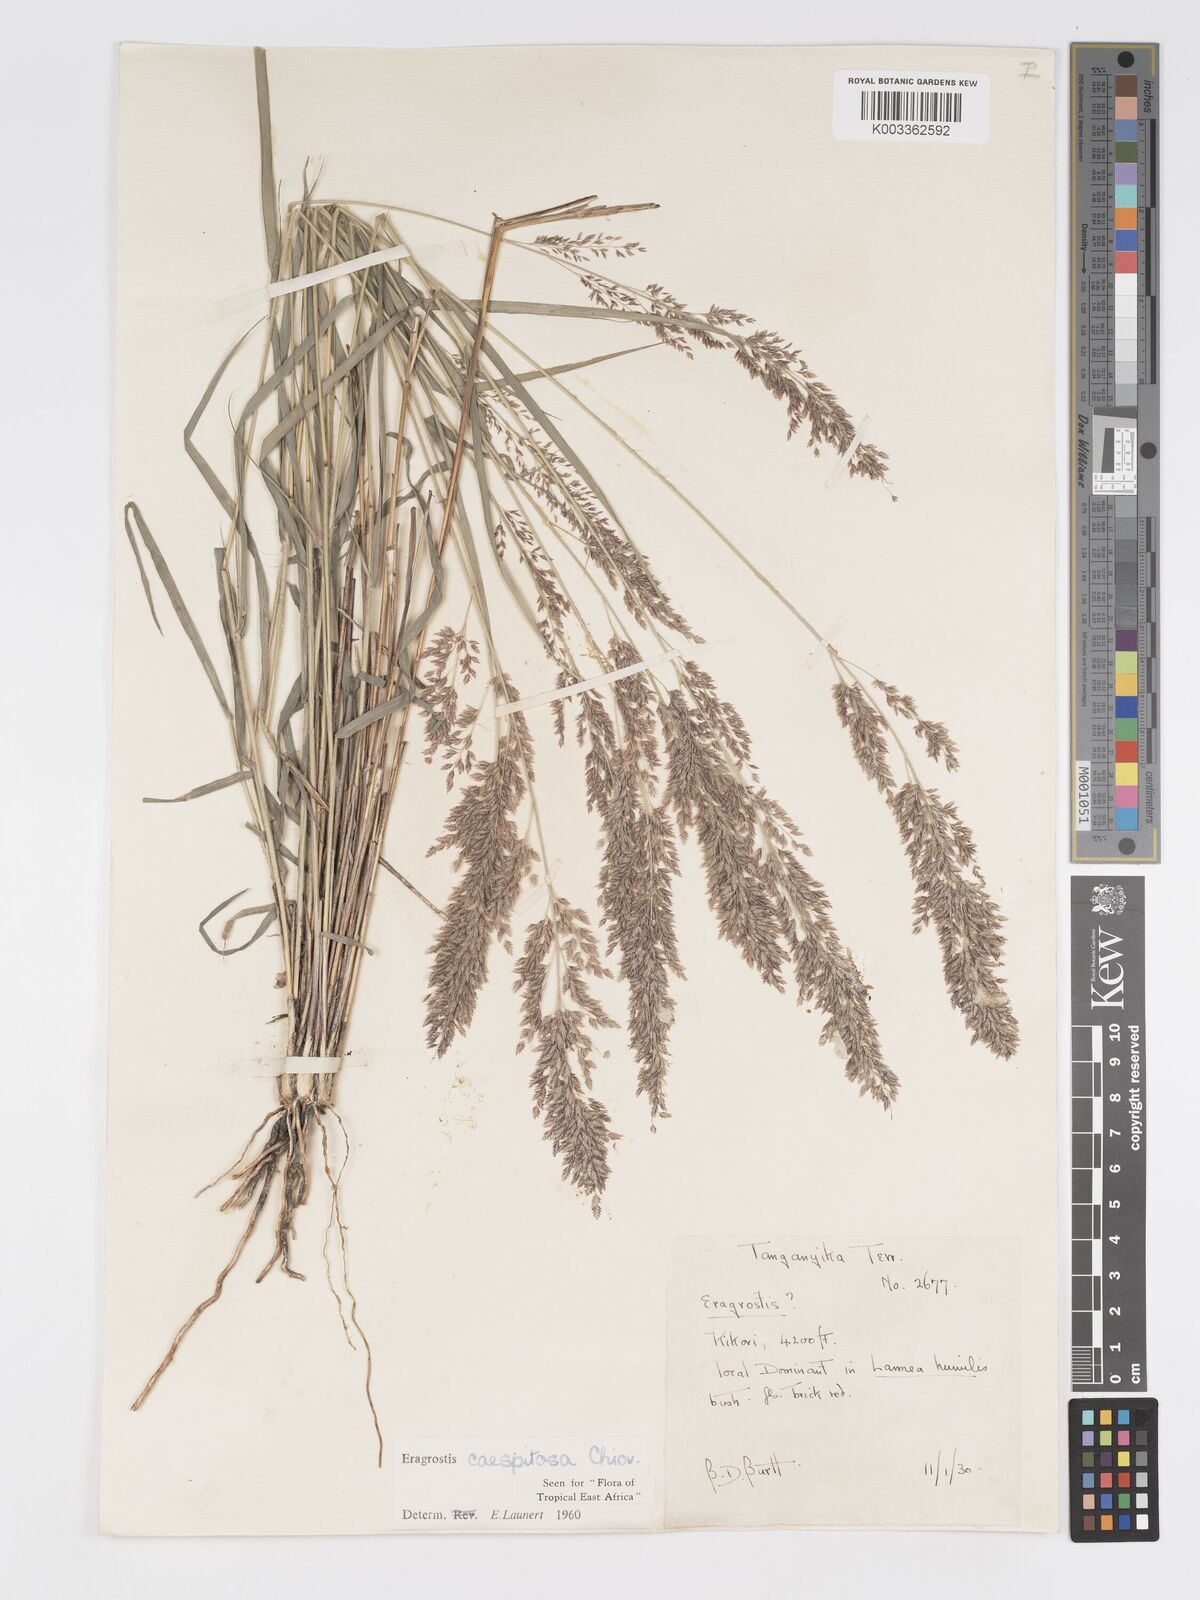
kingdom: Plantae
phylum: Tracheophyta
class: Liliopsida
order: Poales
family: Poaceae
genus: Eragrostis
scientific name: Eragrostis caespitosa
